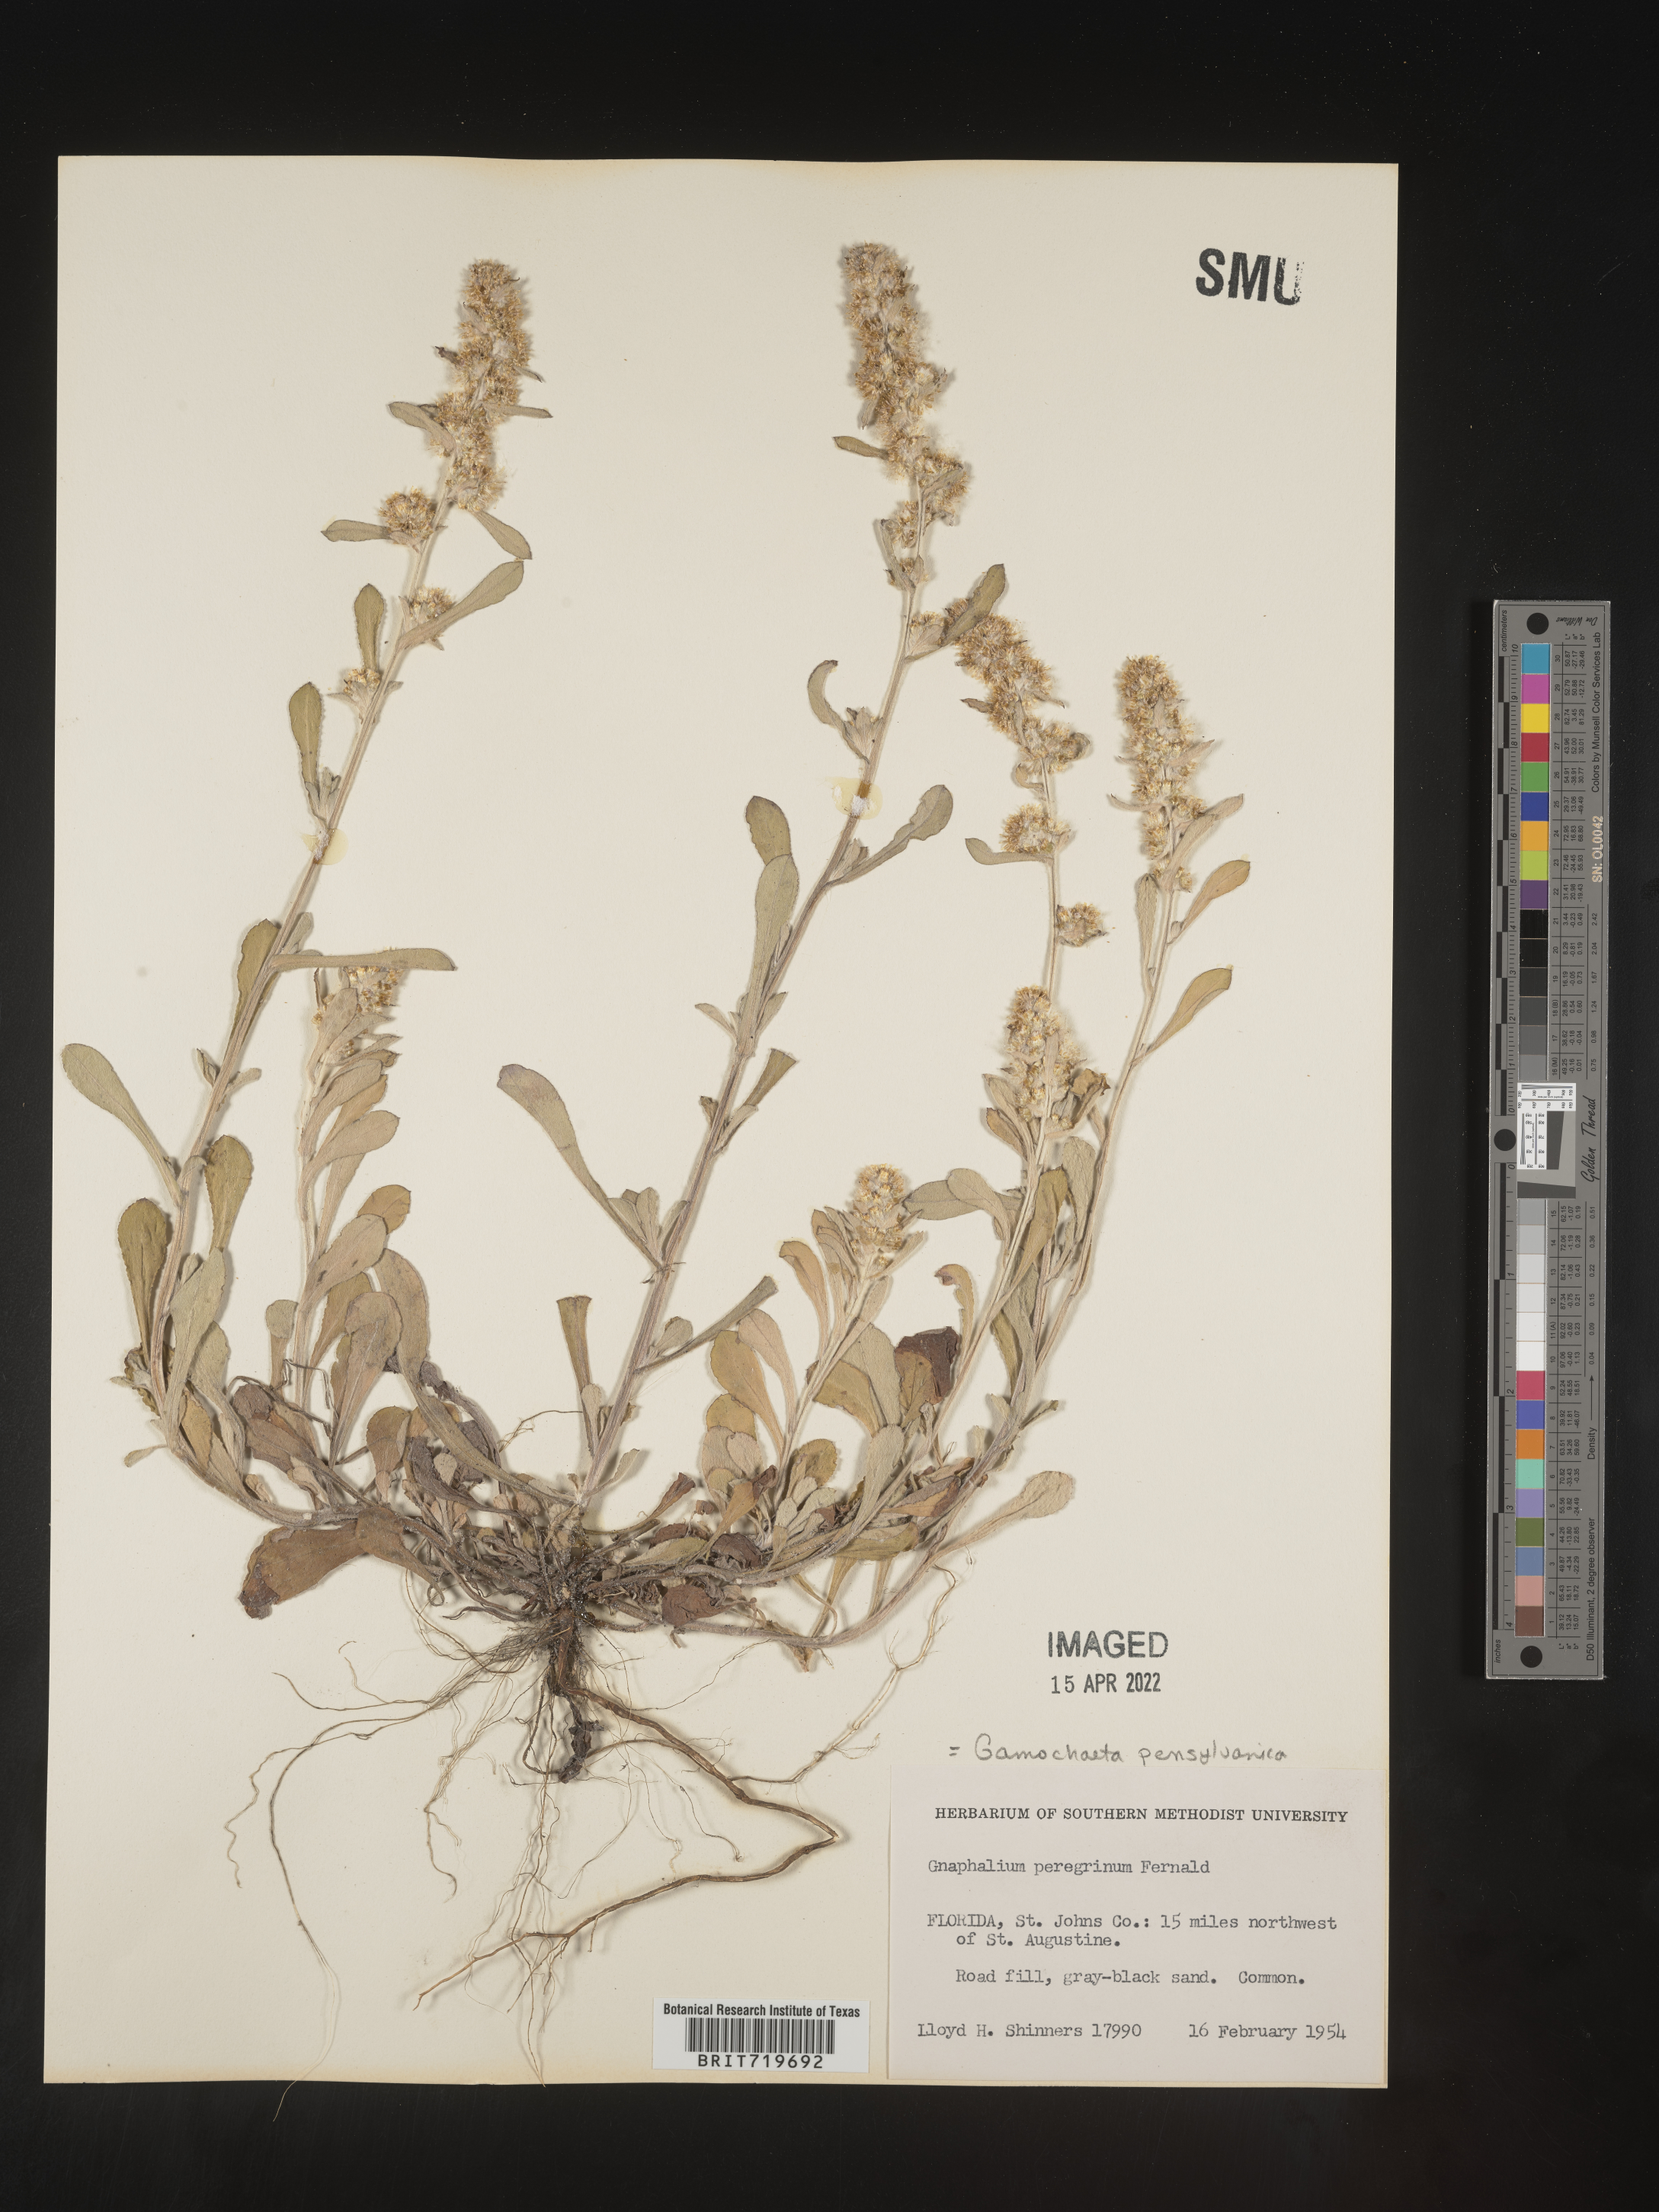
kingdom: Plantae
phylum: Tracheophyta
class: Magnoliopsida
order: Asterales
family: Asteraceae
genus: Gamochaeta
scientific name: Gamochaeta pensylvanica
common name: Pennsylvania everlasting
